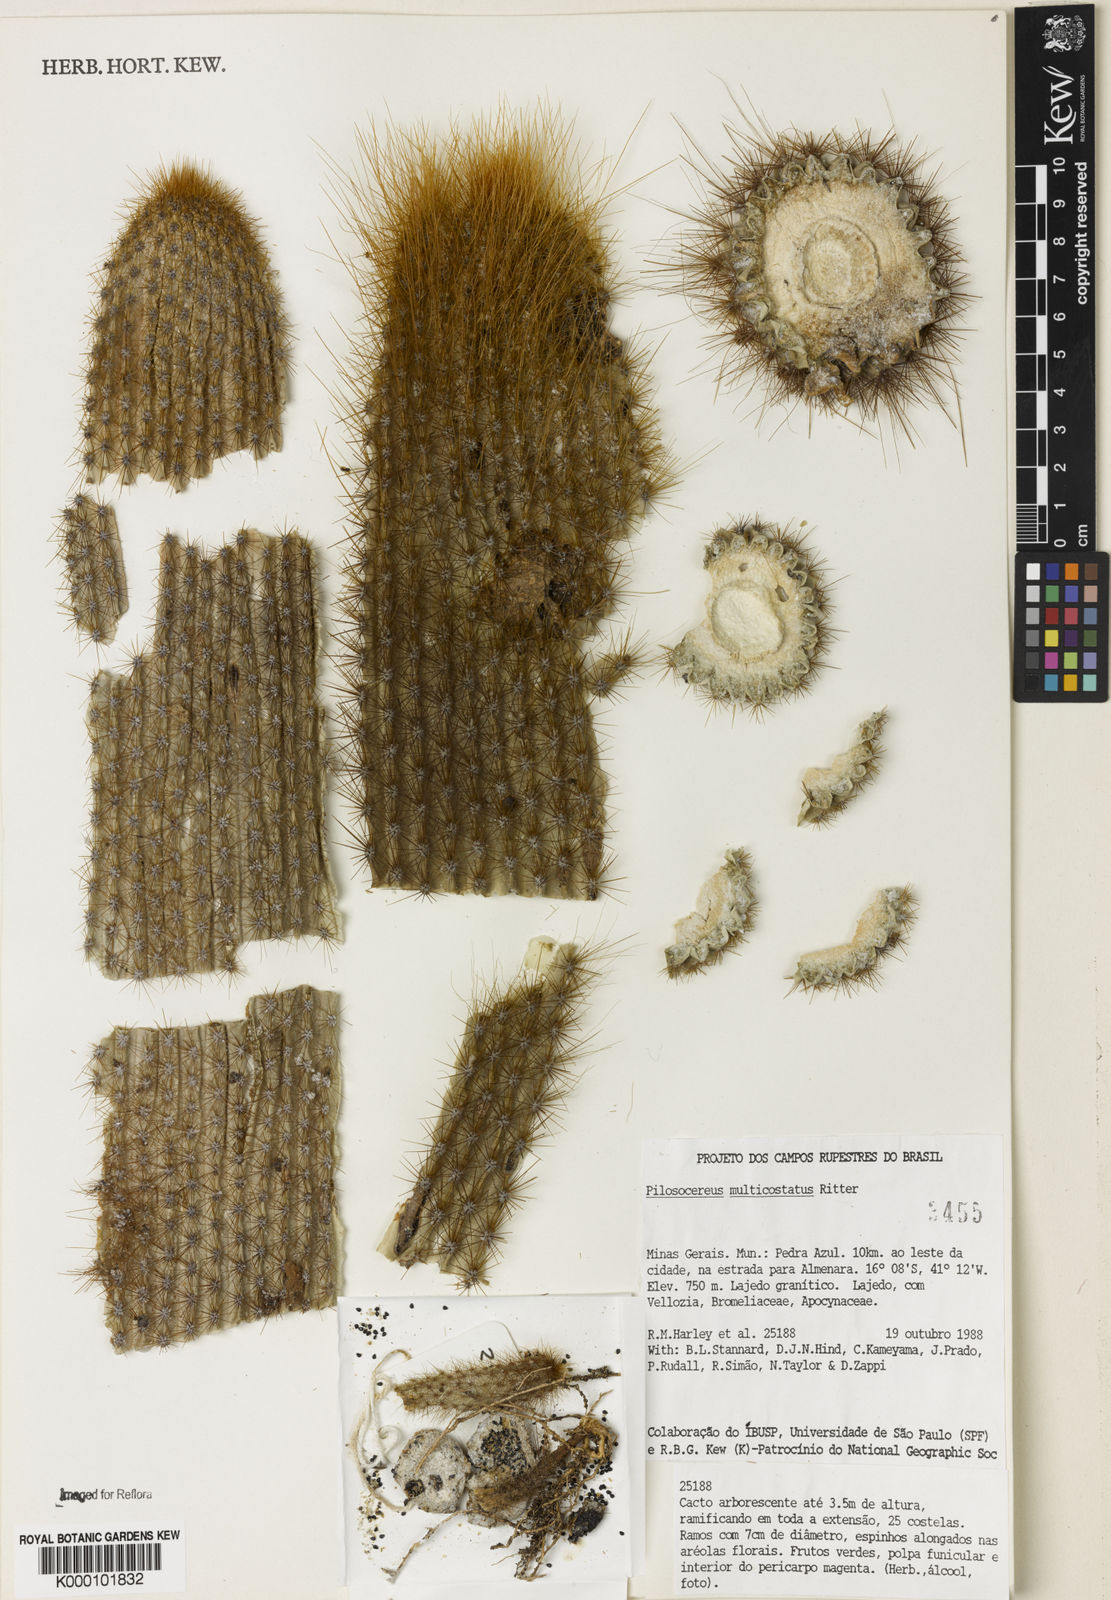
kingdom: Plantae
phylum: Tracheophyta
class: Magnoliopsida
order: Caryophyllales
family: Cactaceae
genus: Pilosocereus
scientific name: Pilosocereus multicostatus
